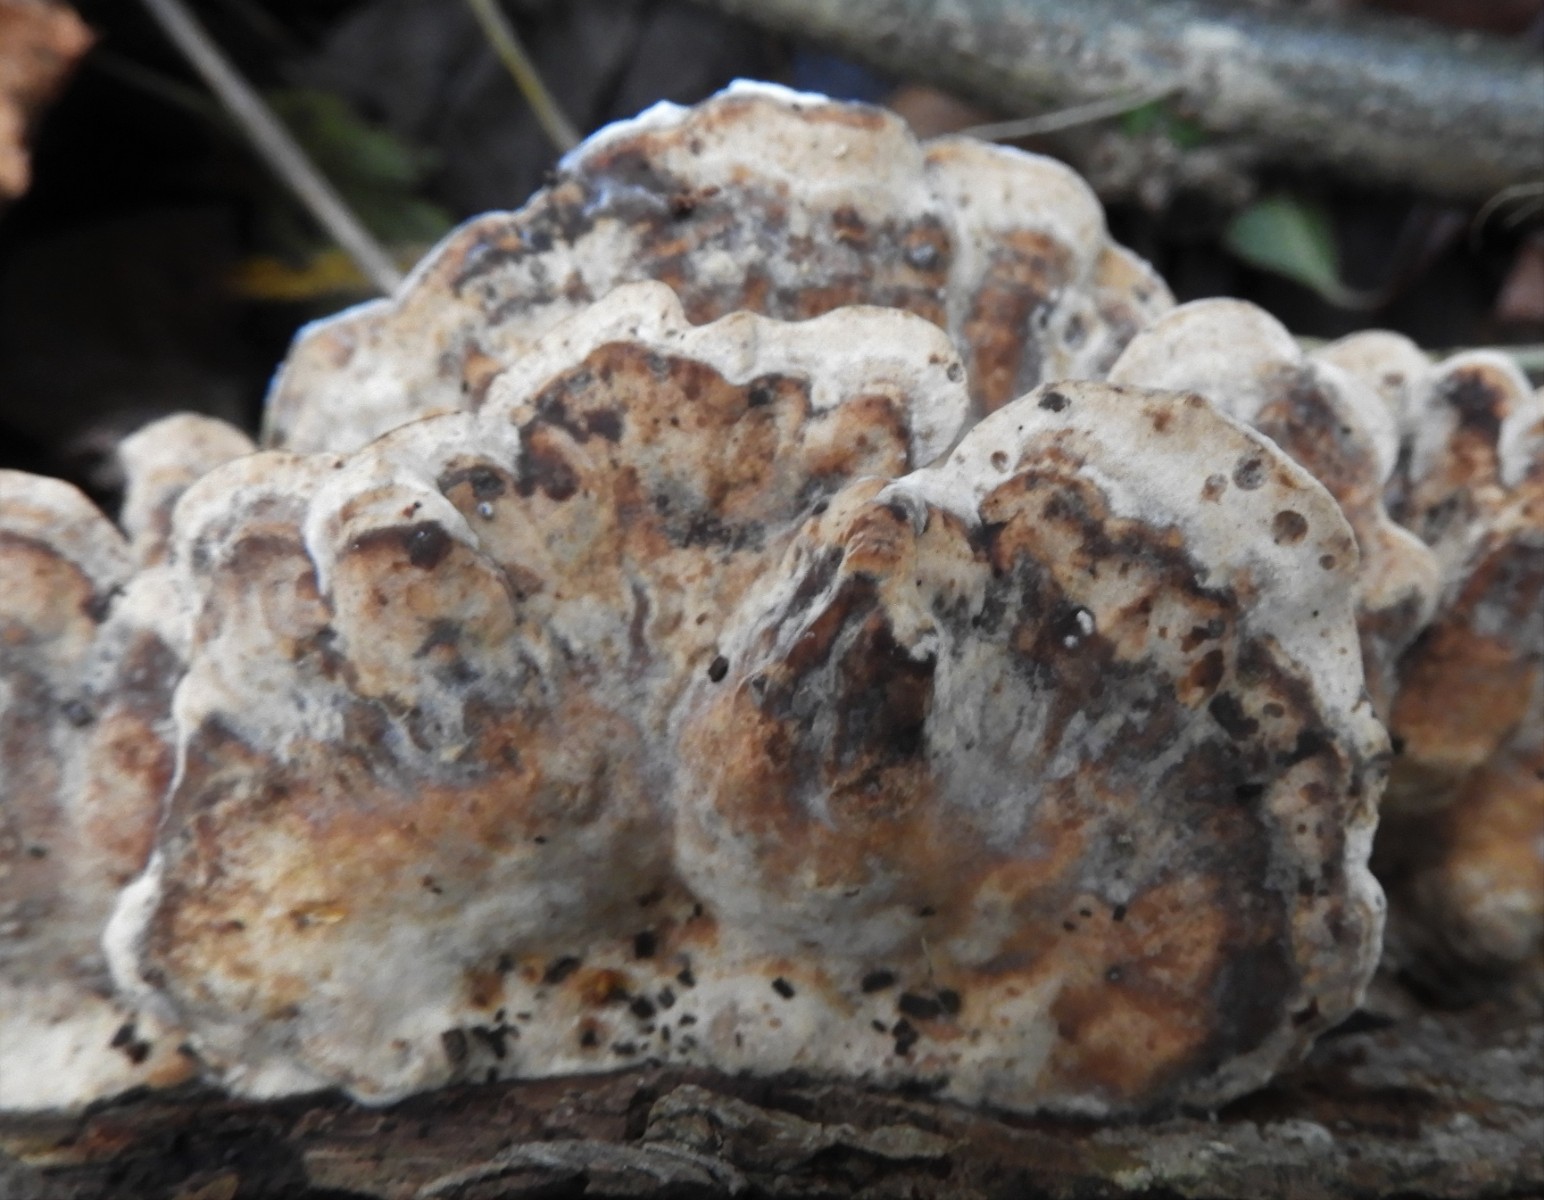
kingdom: Fungi
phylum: Basidiomycota
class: Agaricomycetes
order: Polyporales
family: Phanerochaetaceae
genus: Bjerkandera
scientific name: Bjerkandera fumosa
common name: grågul sodporesvamp
